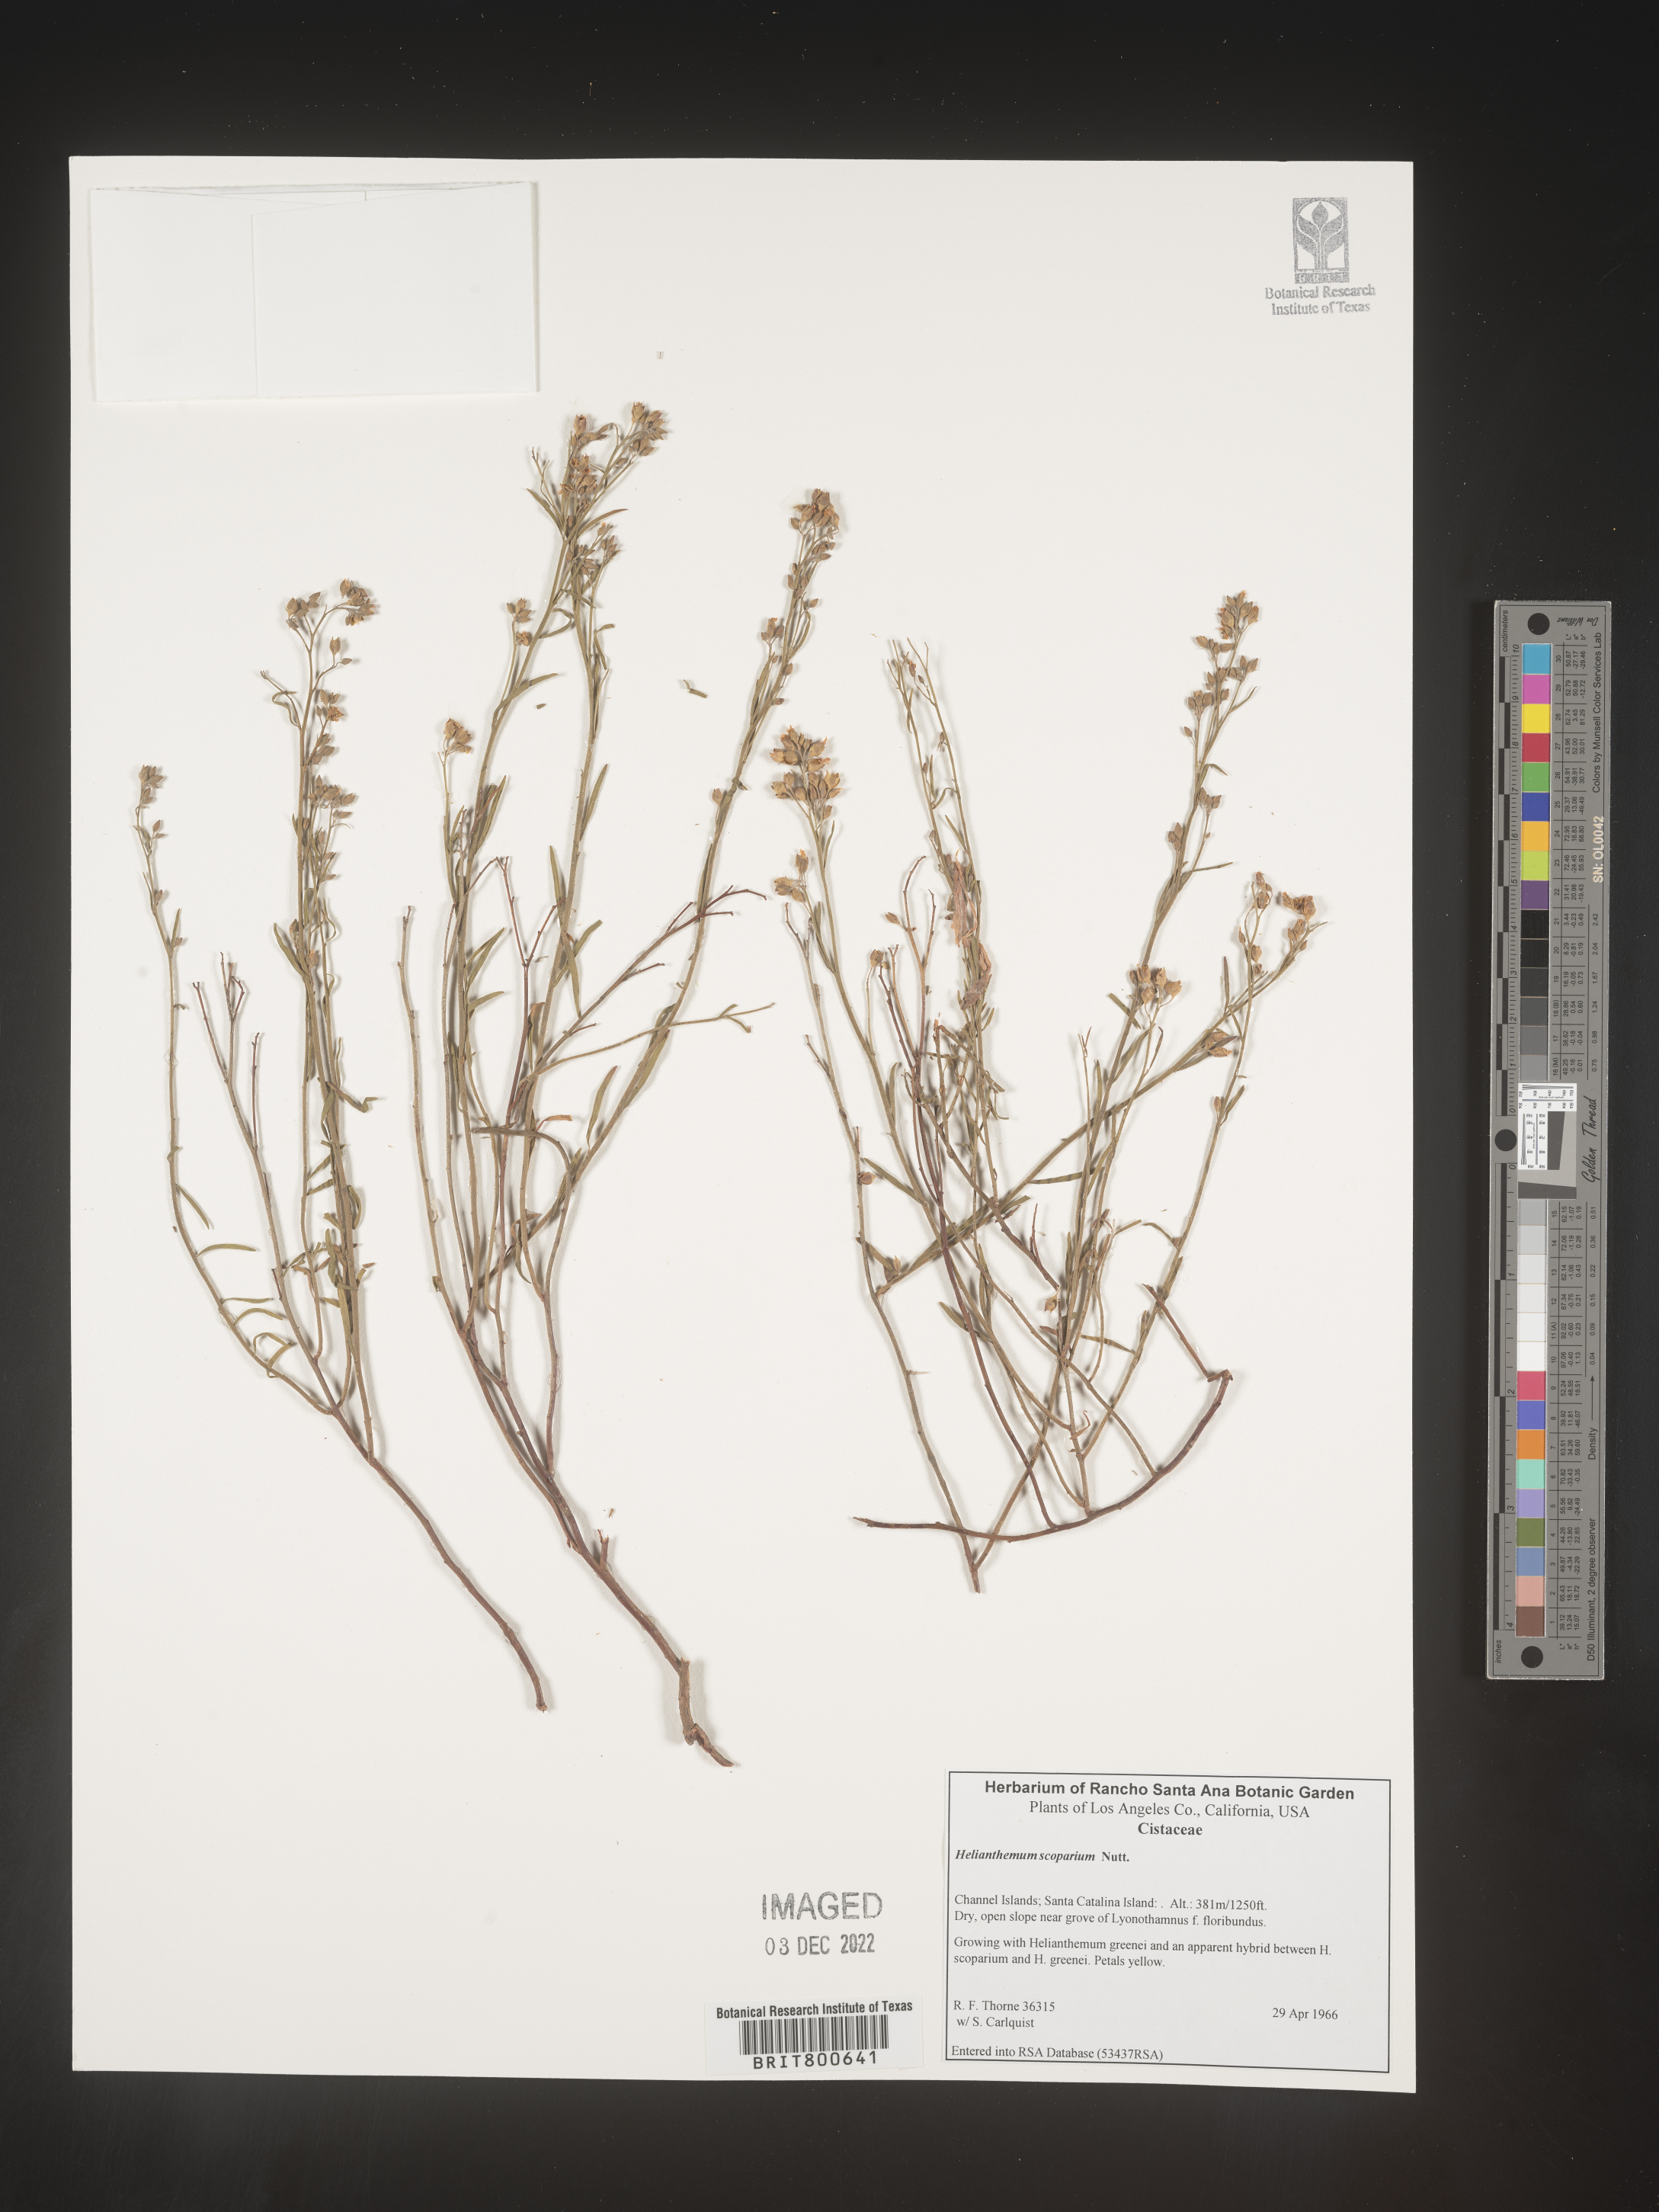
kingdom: Plantae
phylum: Tracheophyta
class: Magnoliopsida
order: Malvales
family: Cistaceae
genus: Helianthemum
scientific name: Helianthemum
